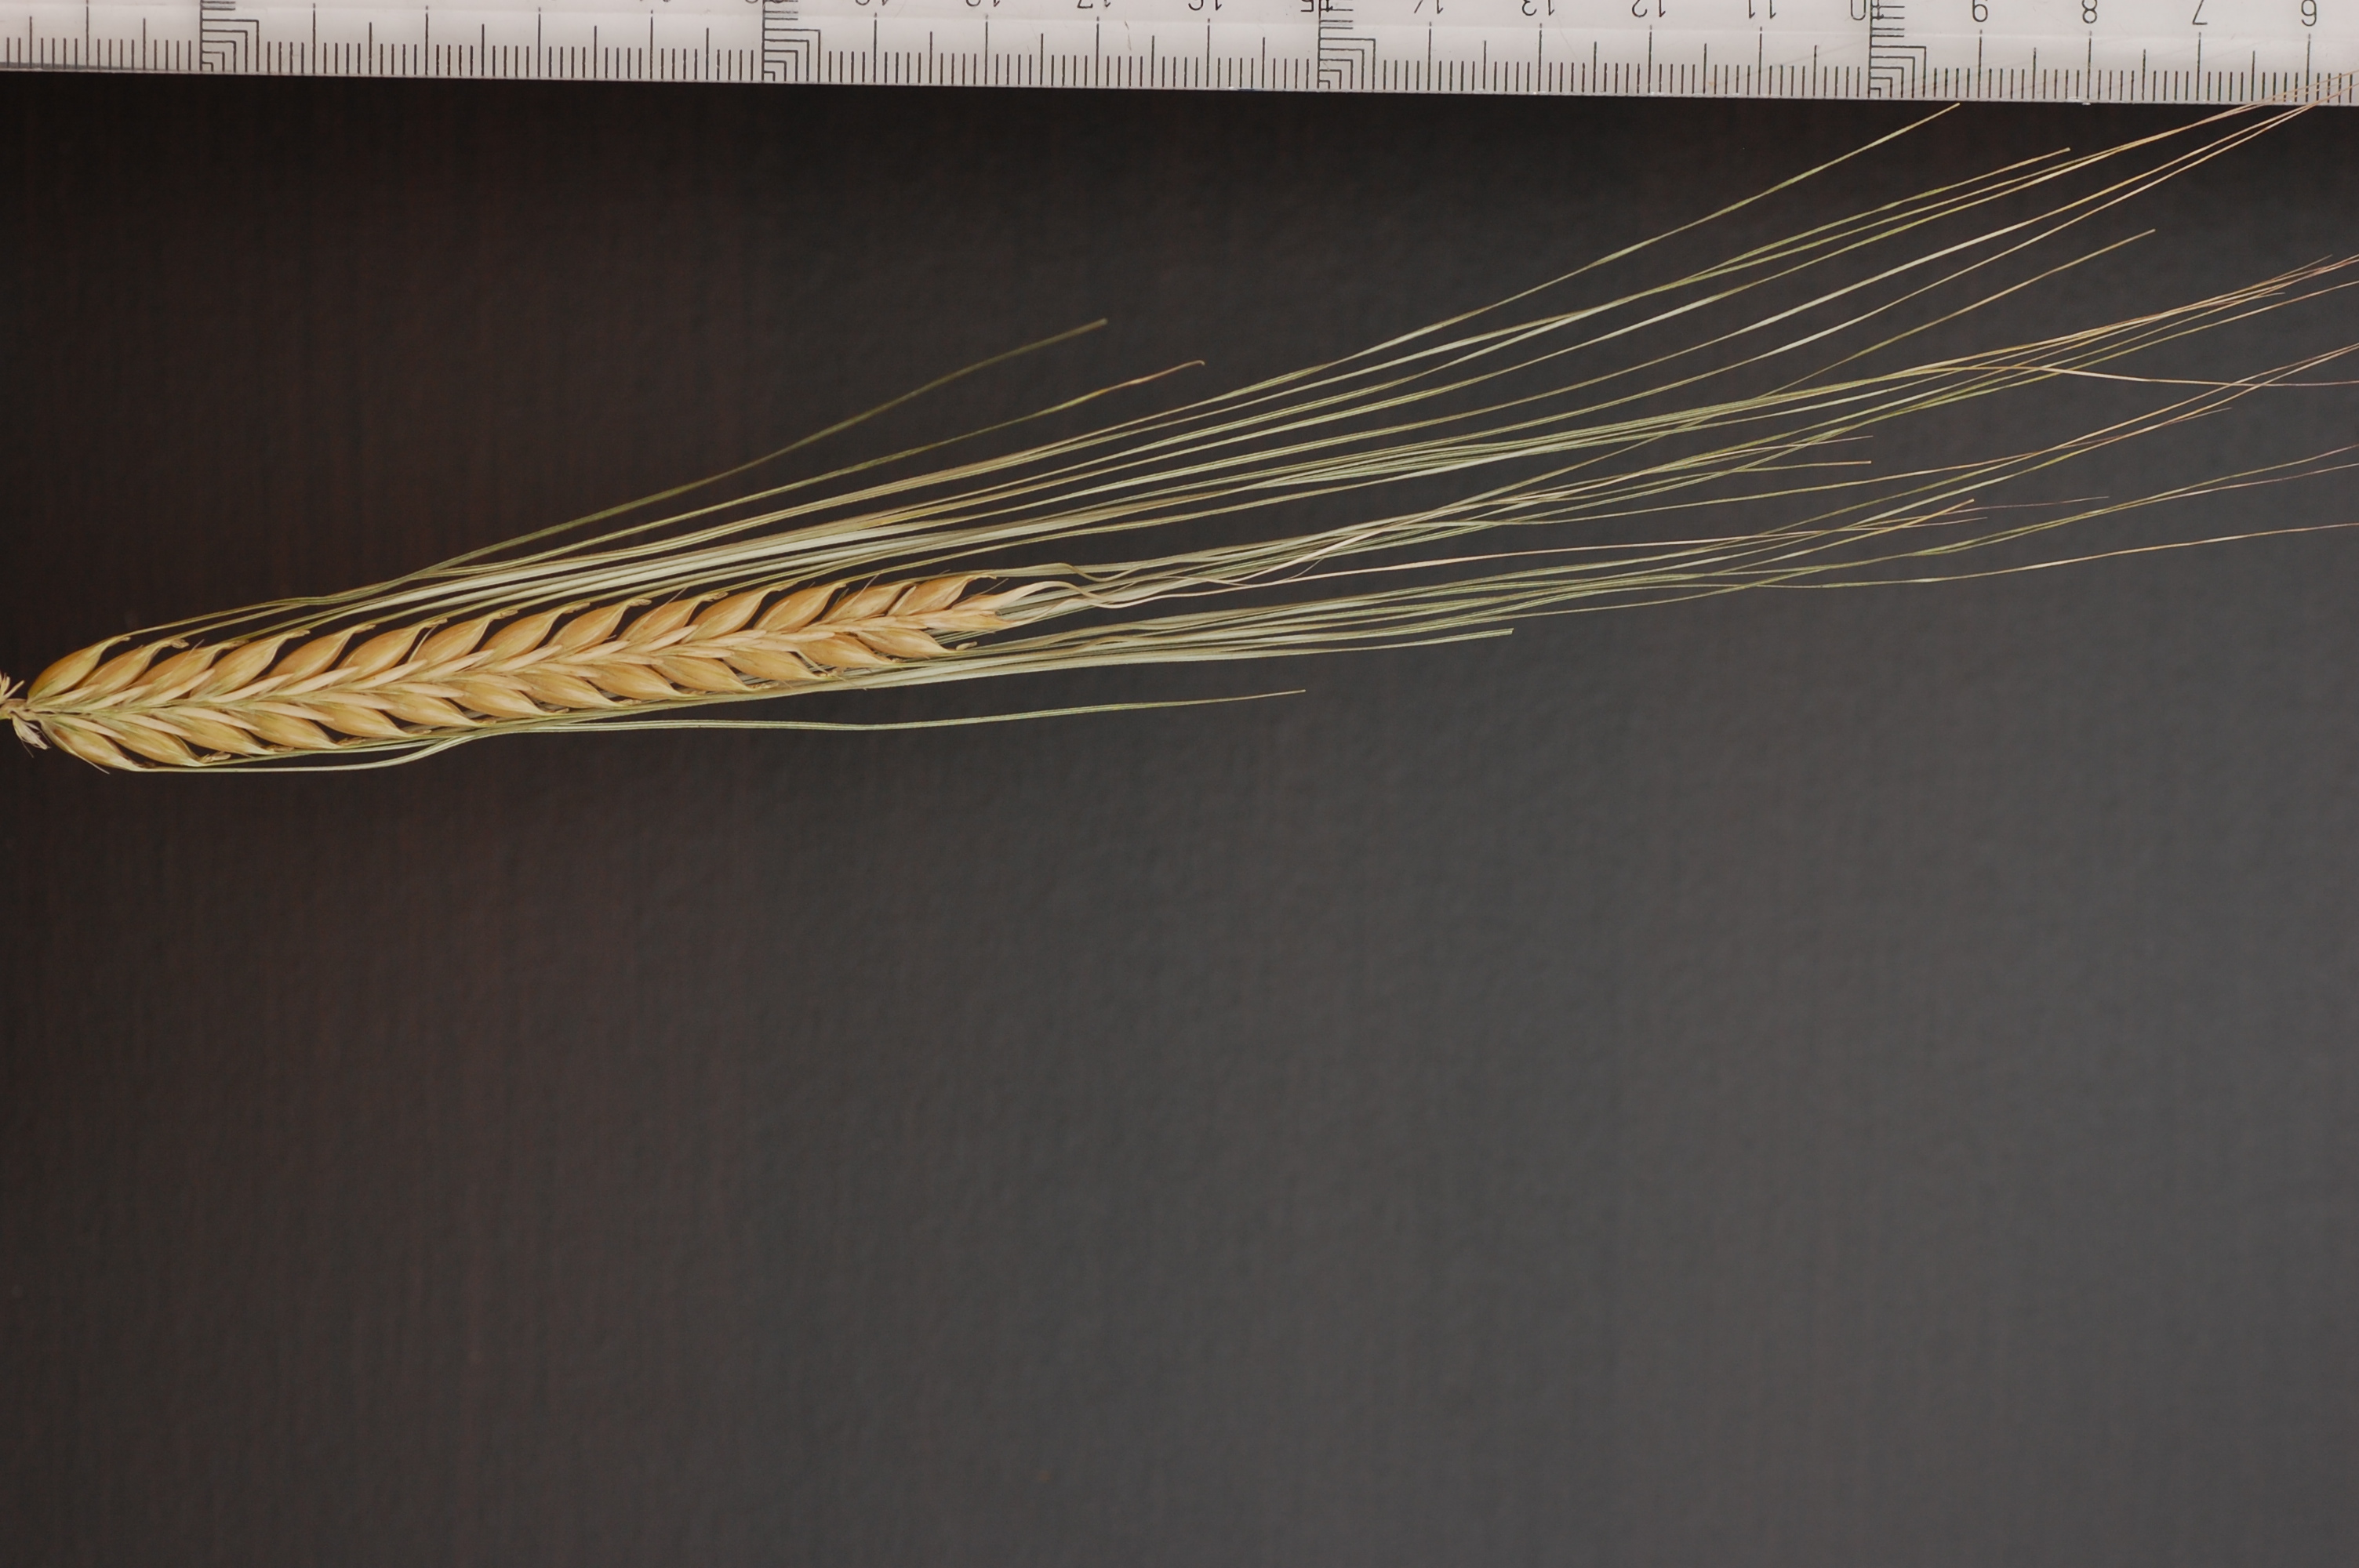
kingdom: Plantae
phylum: Tracheophyta
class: Liliopsida
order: Poales
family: Poaceae
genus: Hordeum
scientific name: Hordeum vulgare
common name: Common barley
